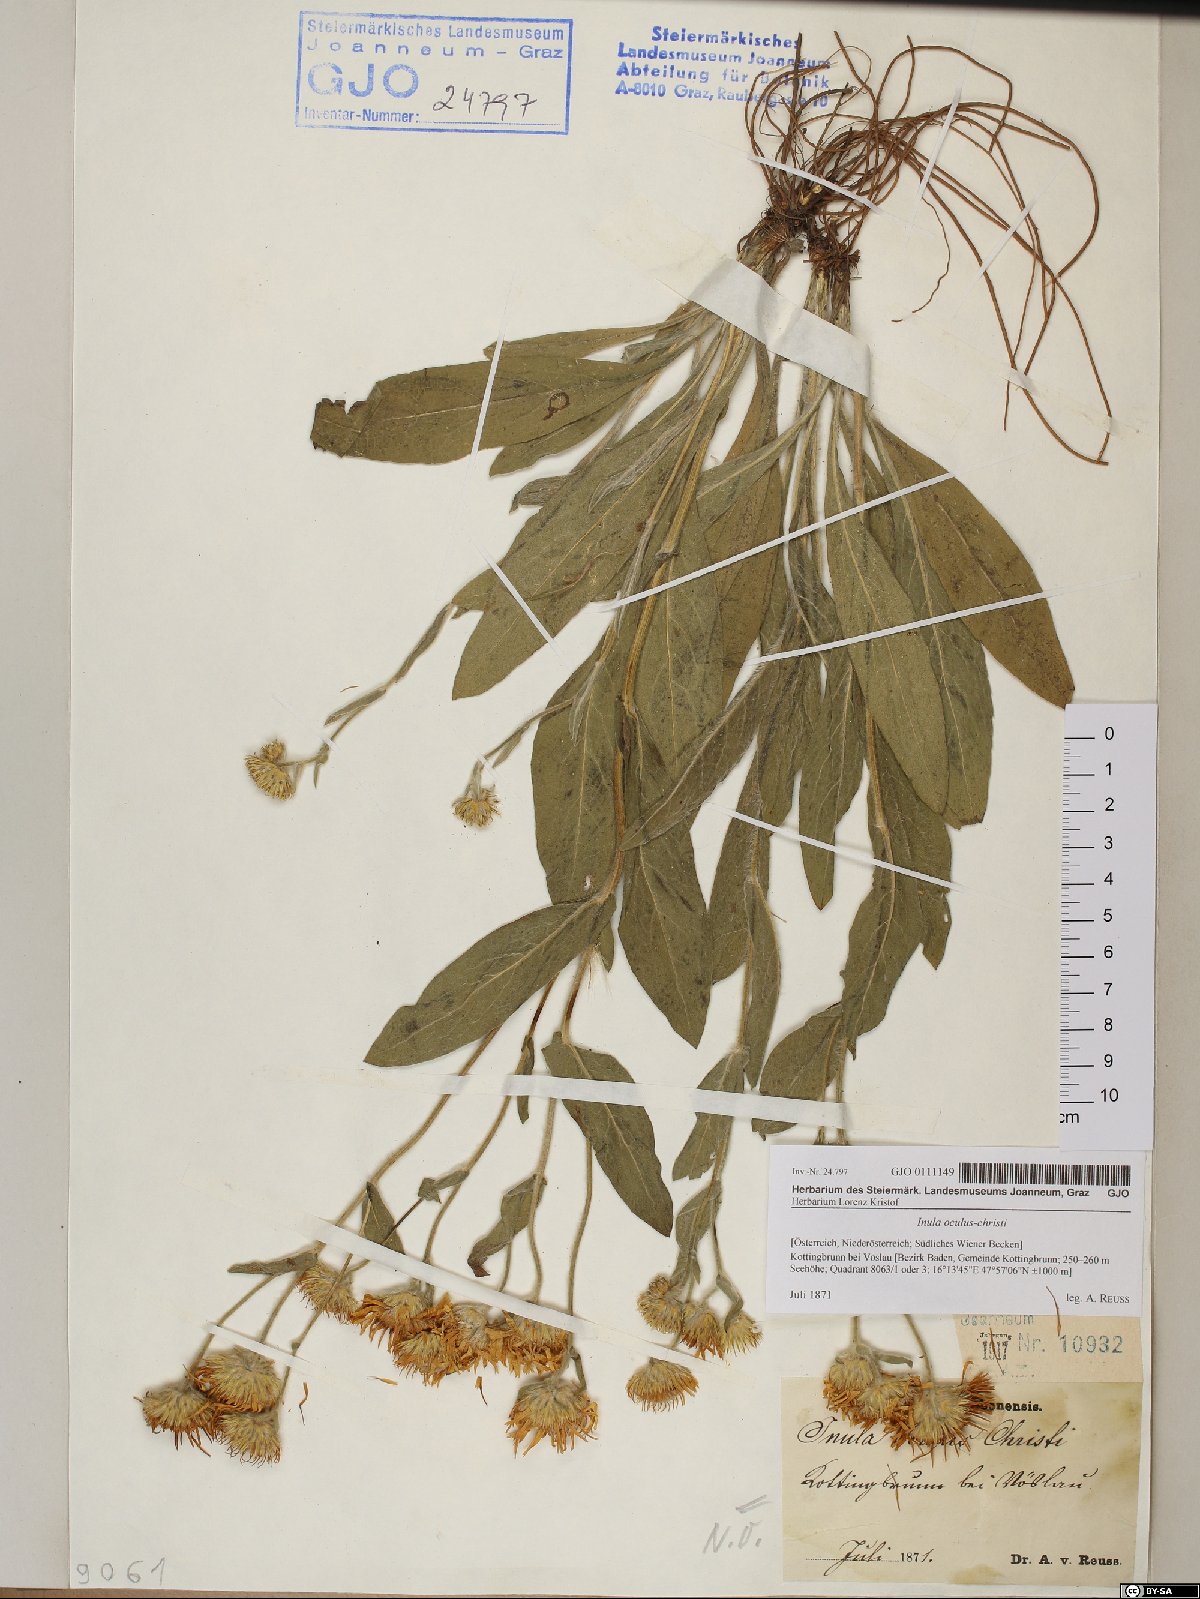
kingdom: Plantae
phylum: Tracheophyta
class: Magnoliopsida
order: Asterales
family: Asteraceae
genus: Pentanema
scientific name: Pentanema oculus-christi
